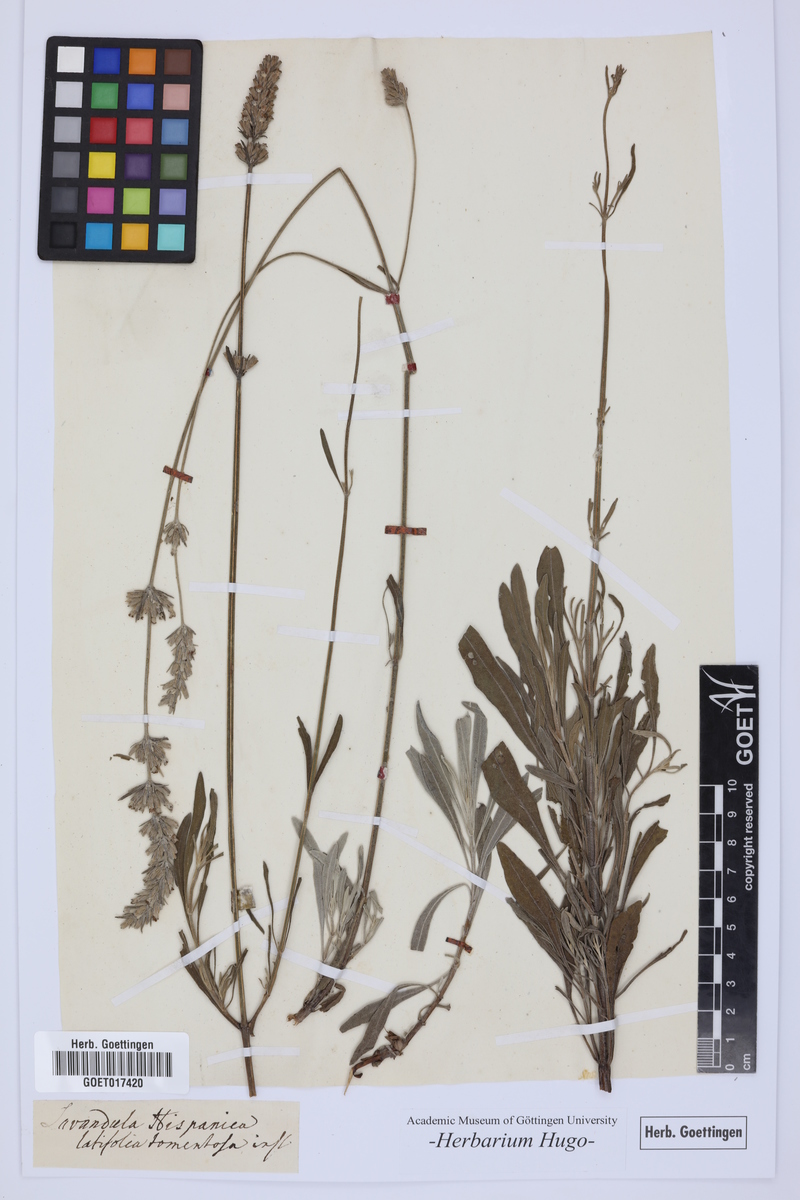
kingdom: Plantae
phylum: Tracheophyta
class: Magnoliopsida
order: Lamiales
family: Lamiaceae
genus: Lavandula
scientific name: Lavandula
